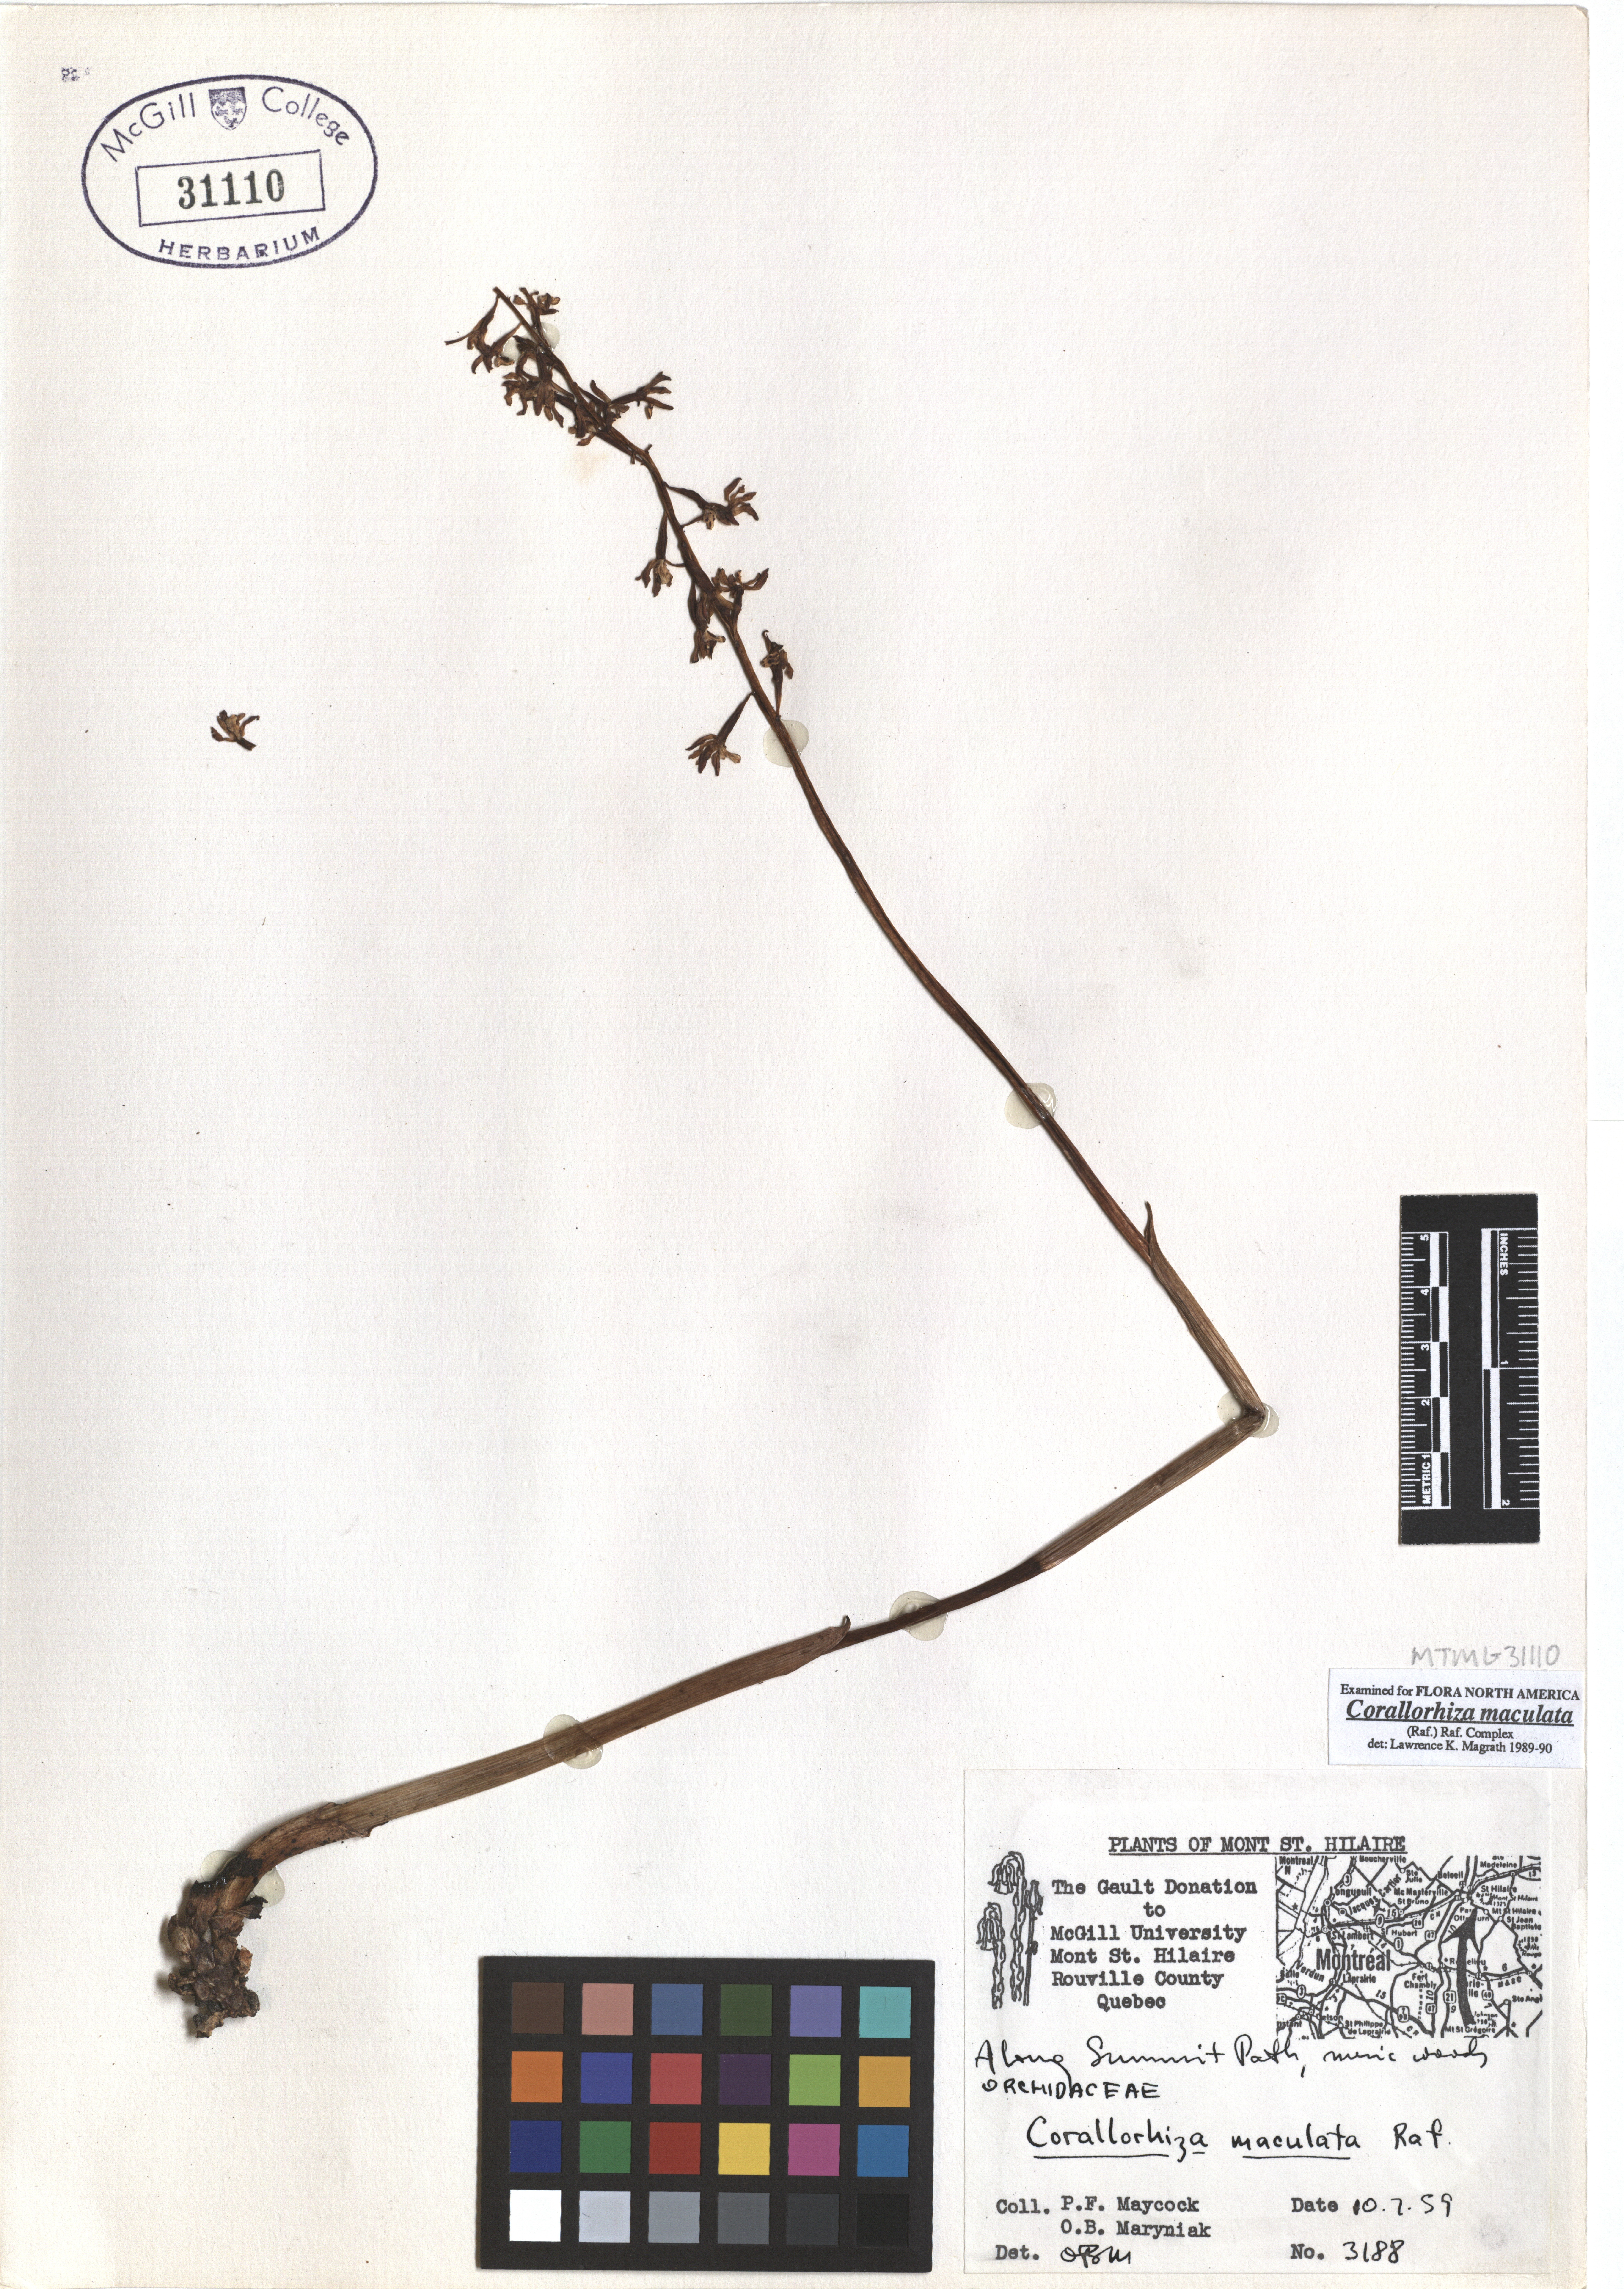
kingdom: Plantae
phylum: Tracheophyta
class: Liliopsida
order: Asparagales
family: Orchidaceae
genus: Corallorhiza
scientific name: Corallorhiza maculata
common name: Spotted coralroot
